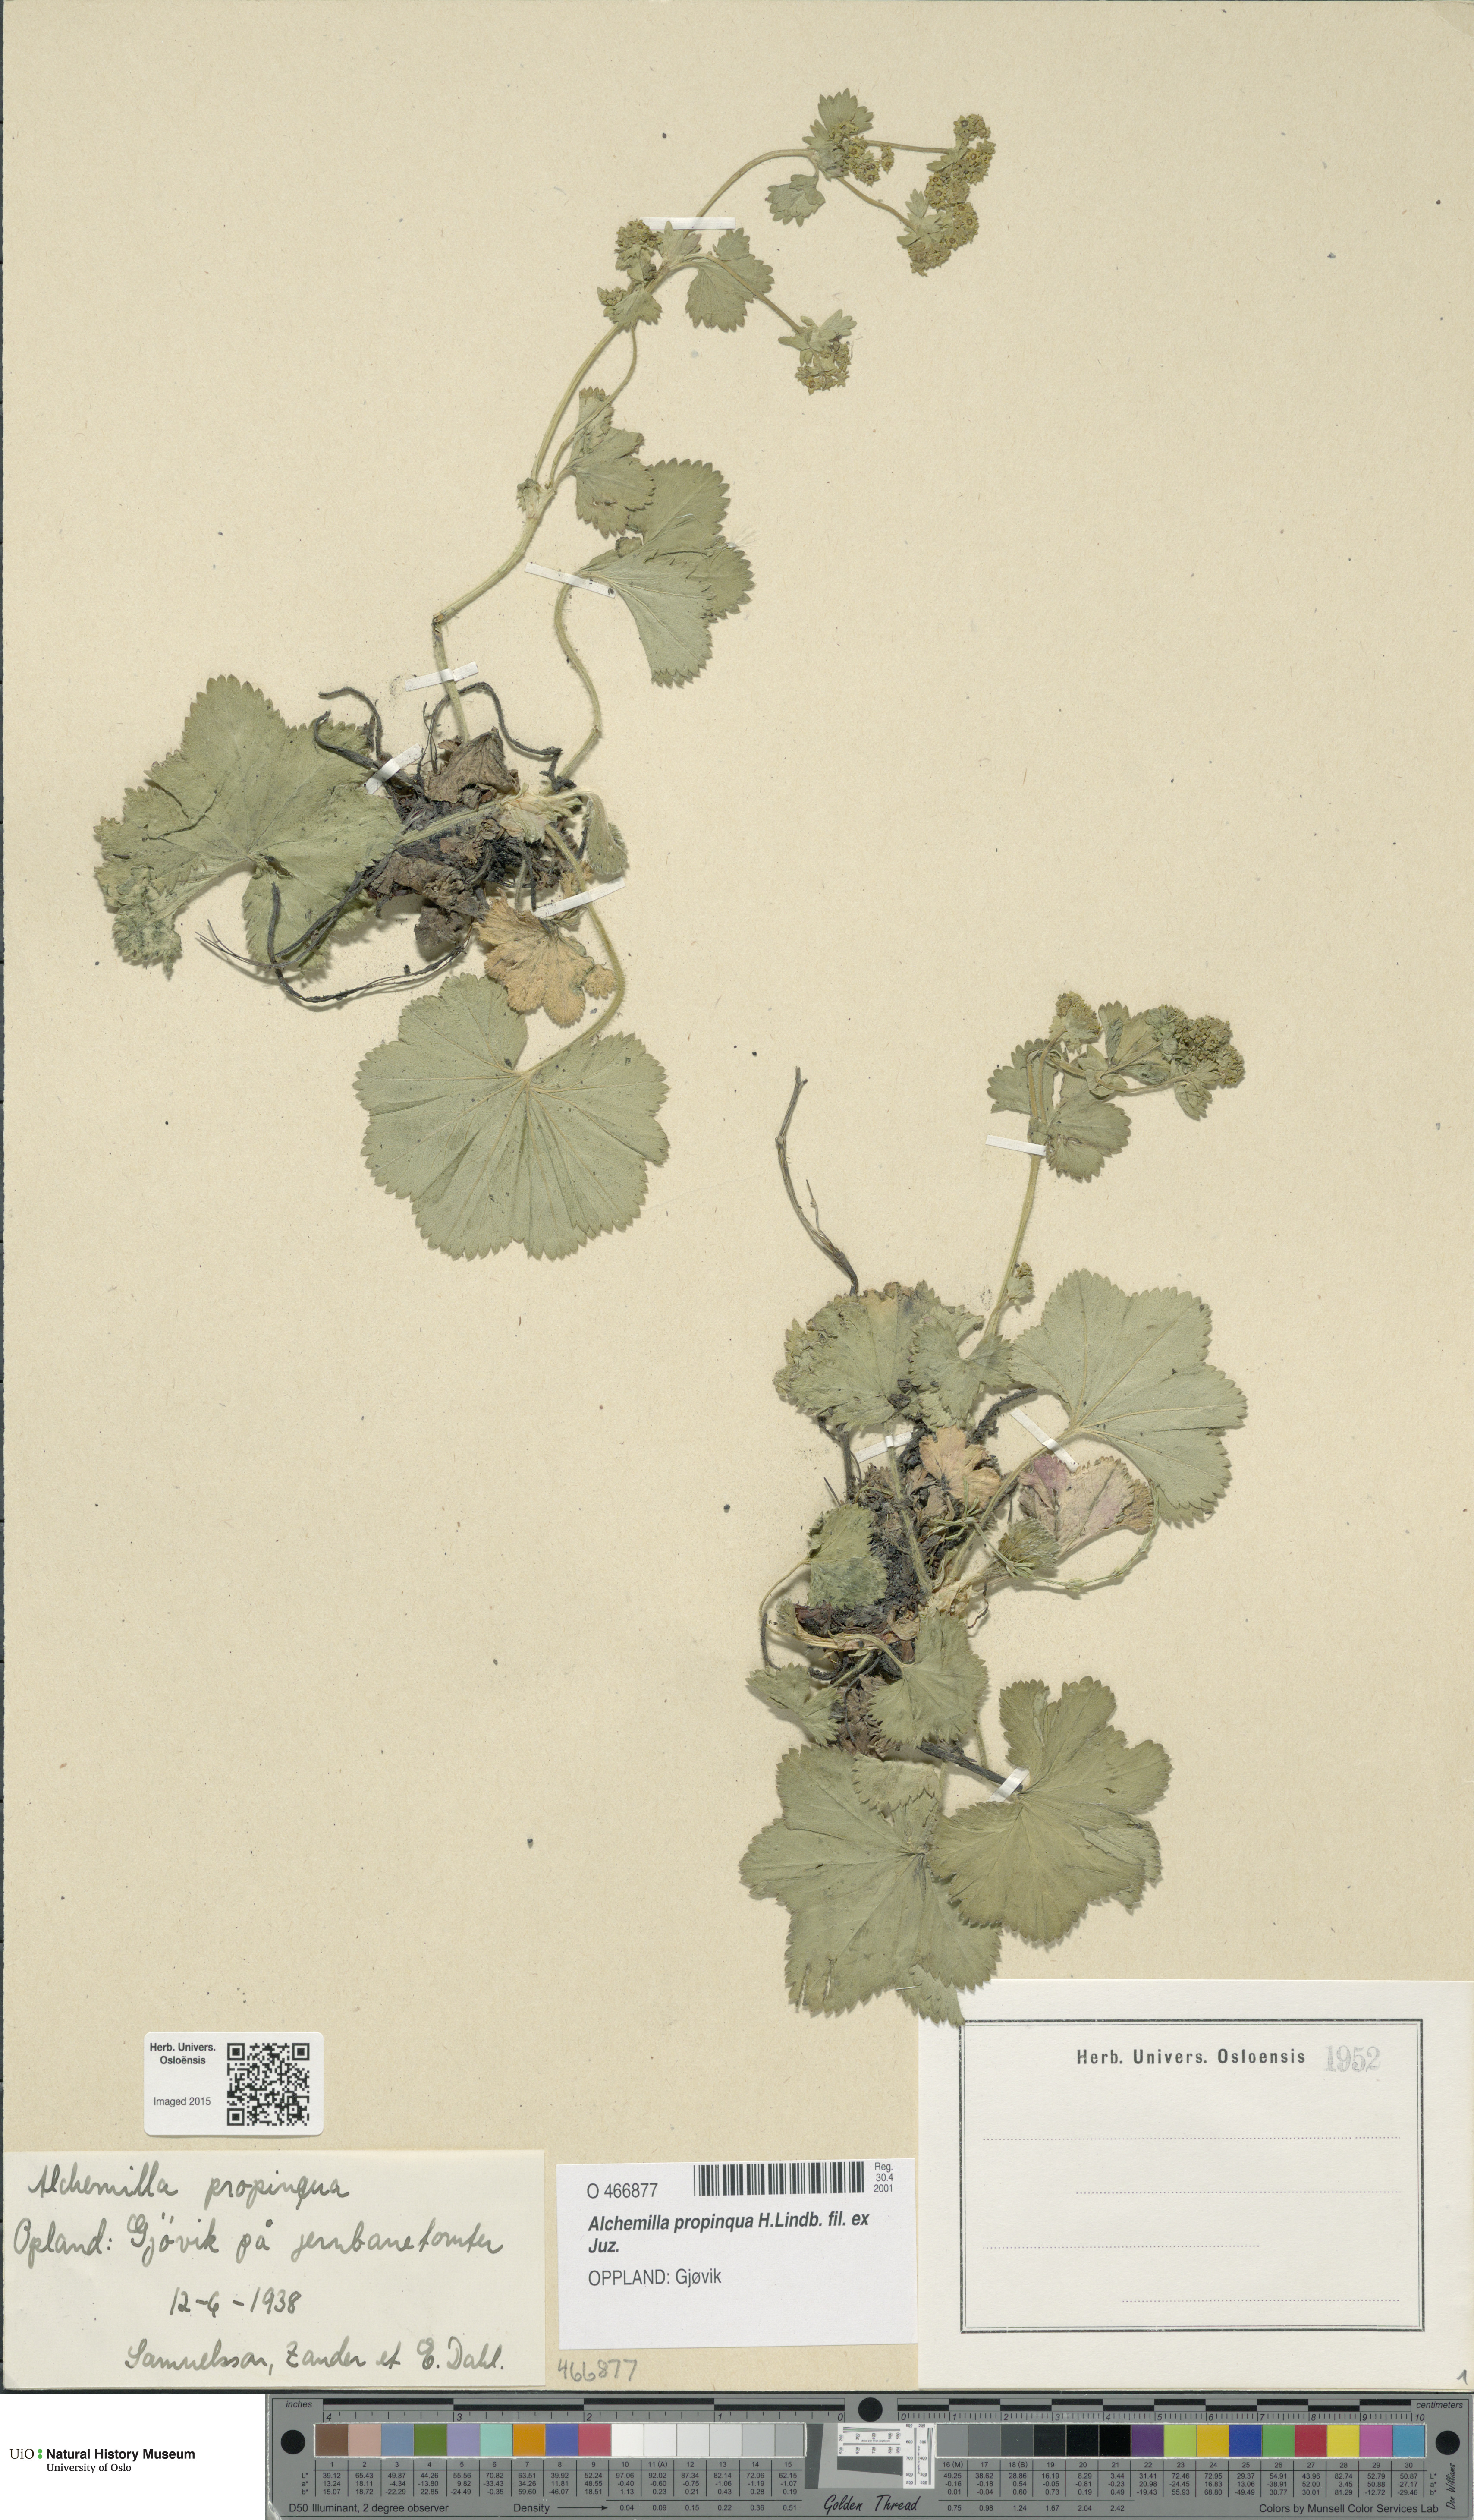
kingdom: Plantae
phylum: Tracheophyta
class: Magnoliopsida
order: Rosales
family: Rosaceae
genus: Alchemilla
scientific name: Alchemilla propinqua
